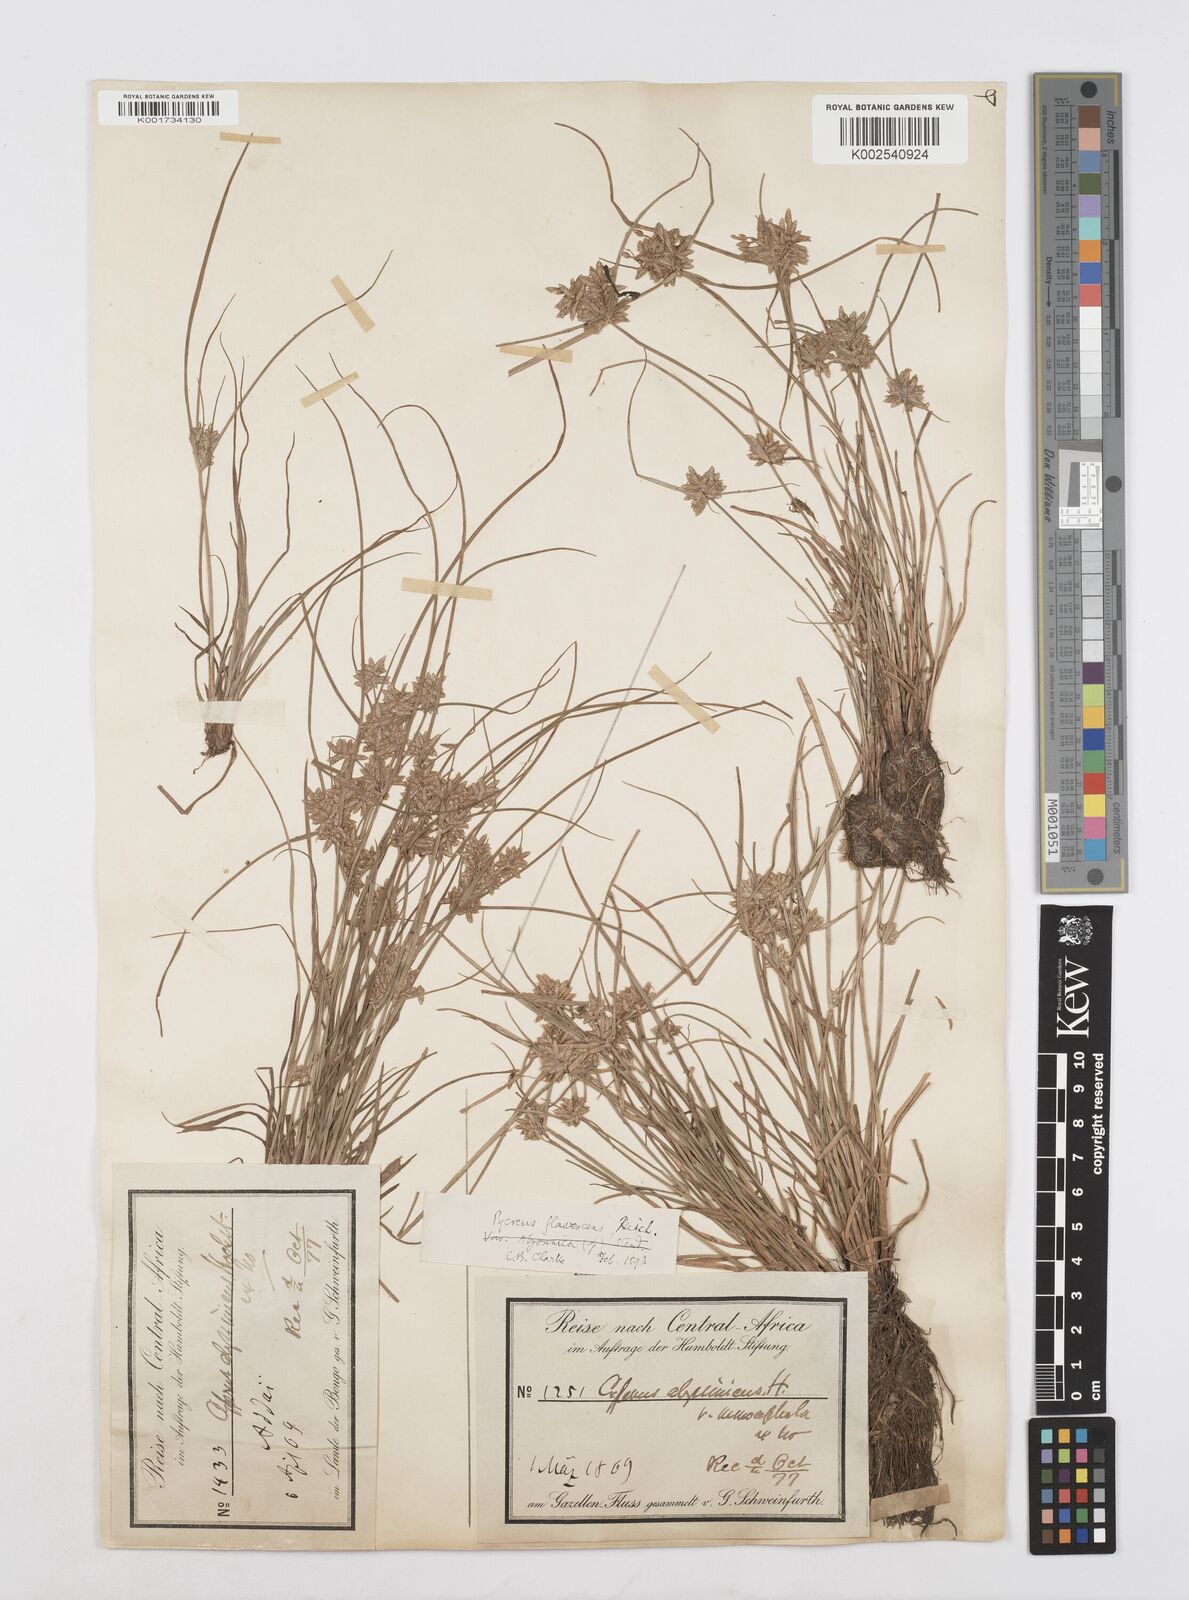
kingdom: Plantae
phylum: Tracheophyta
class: Liliopsida
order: Poales
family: Cyperaceae
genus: Cyperus
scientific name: Cyperus flavescens
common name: Yellow galingale
